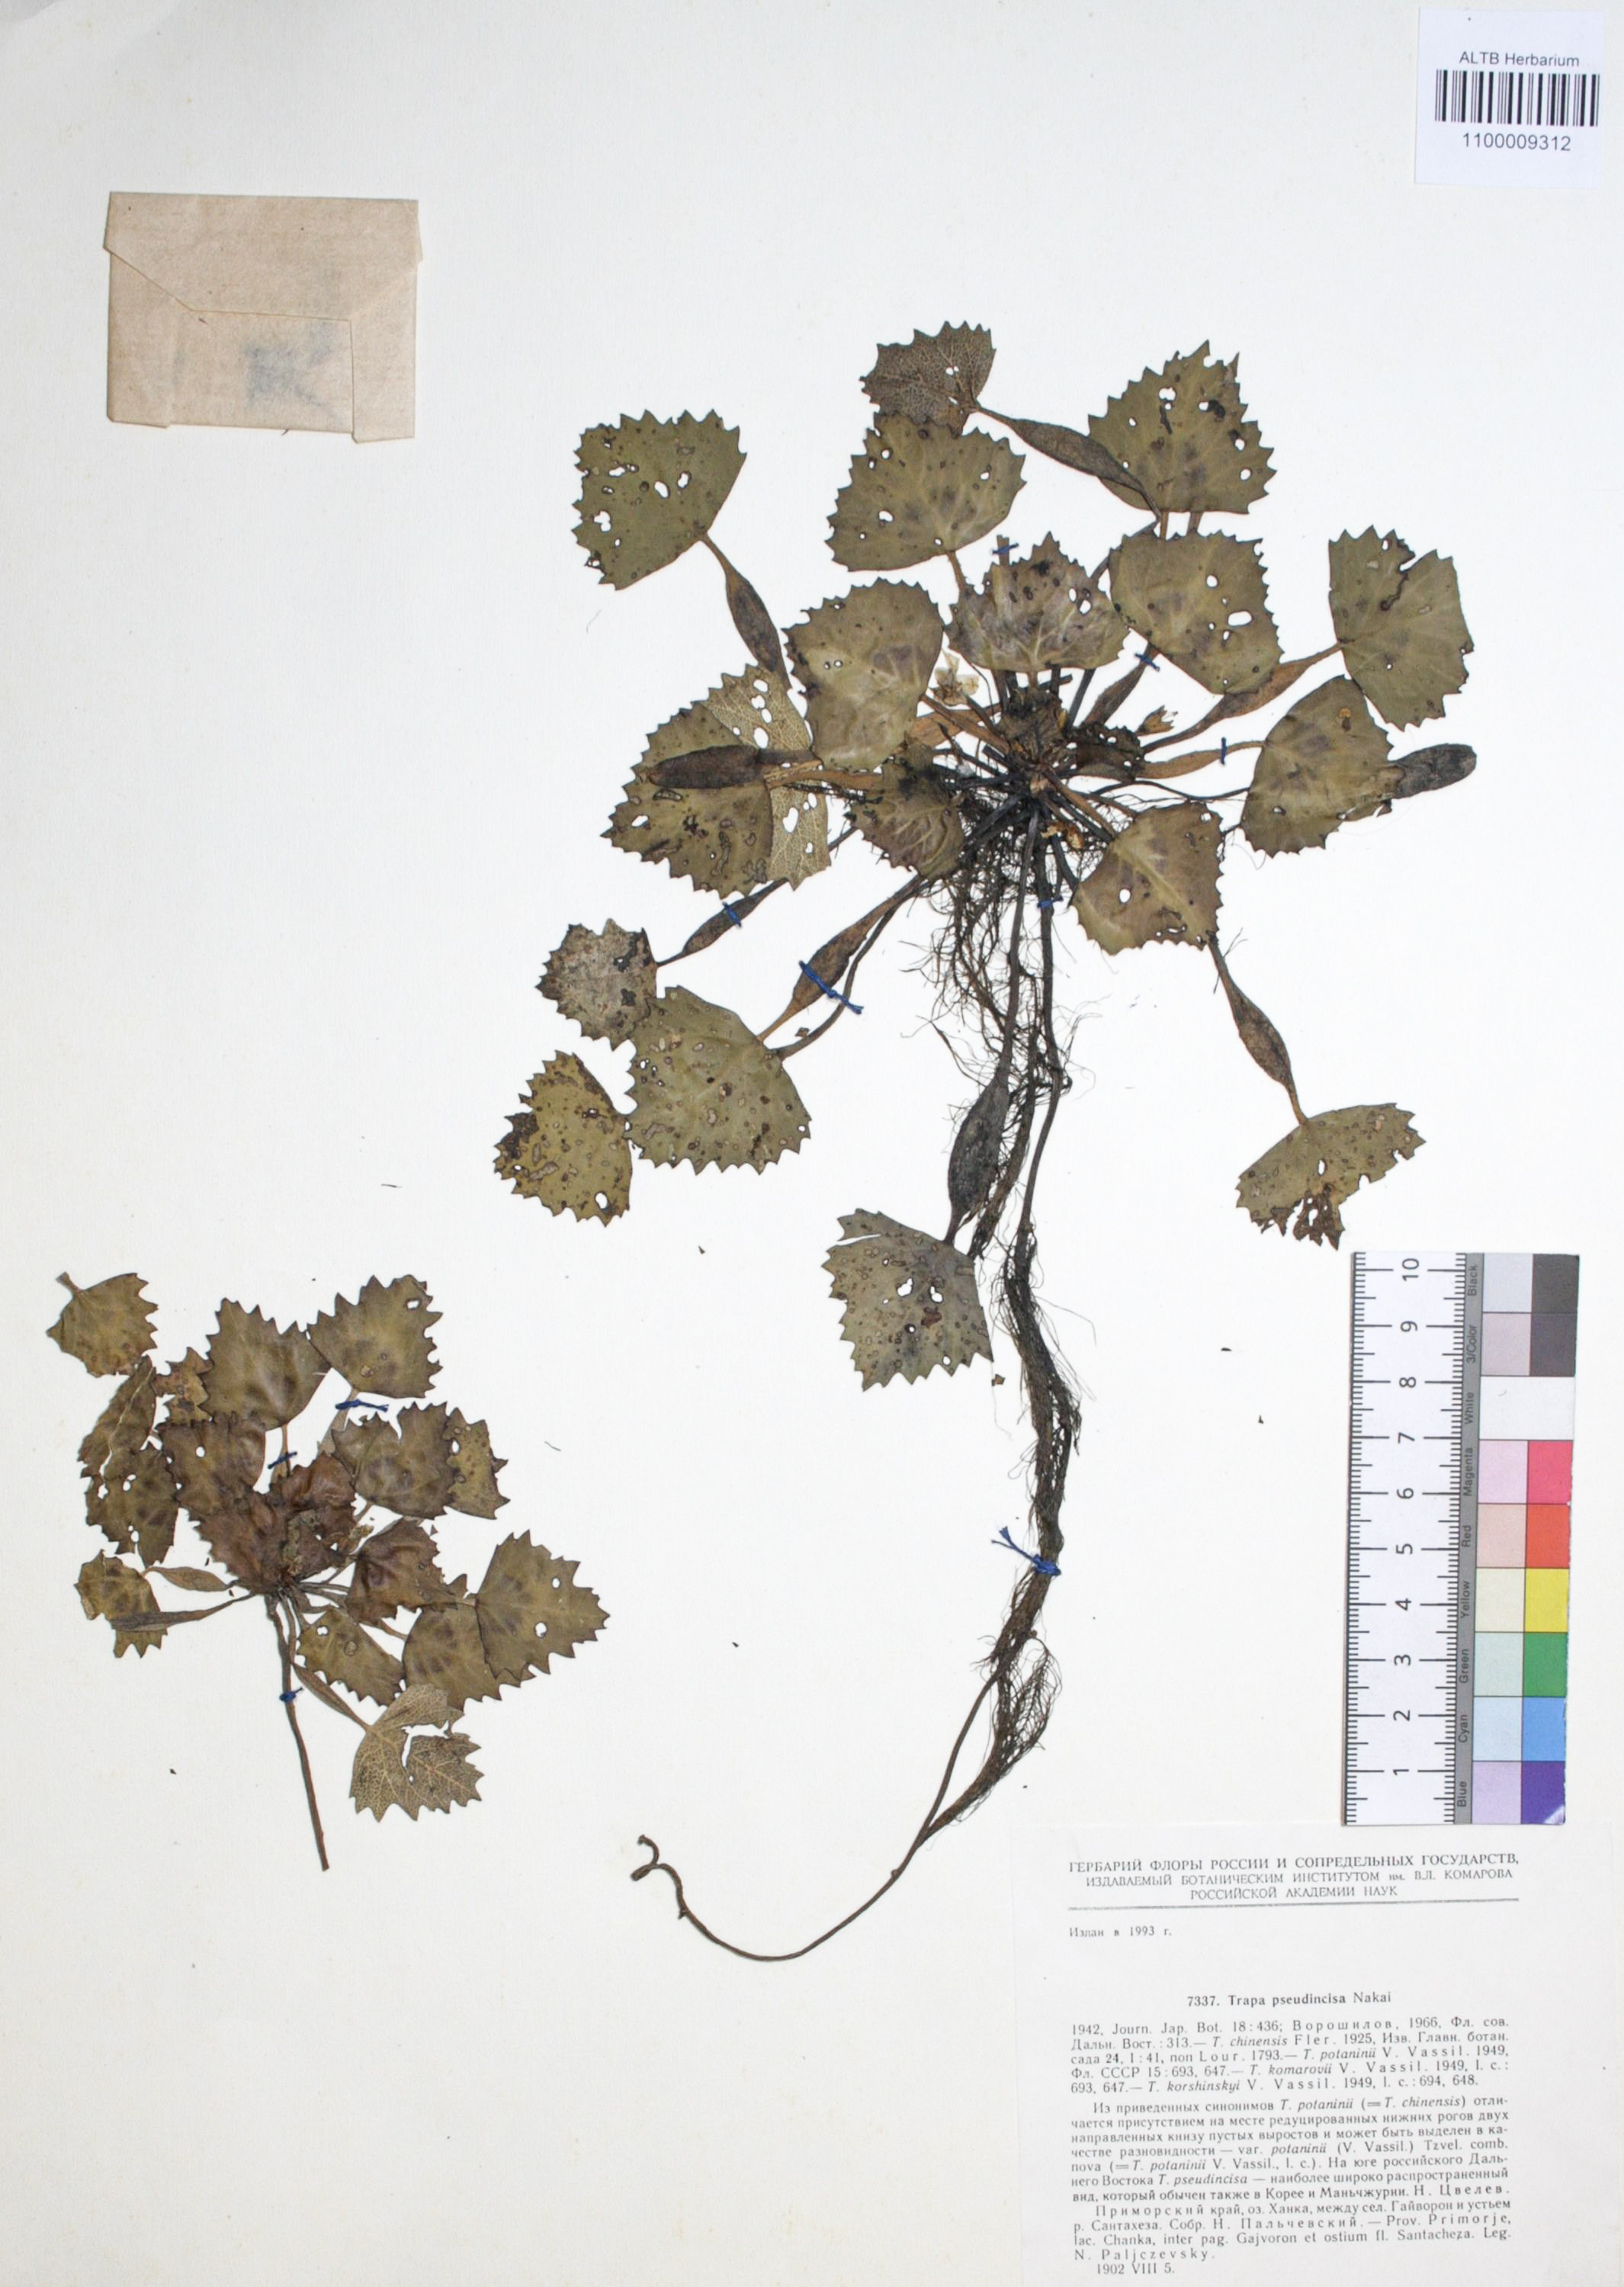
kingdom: Plantae
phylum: Tracheophyta
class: Magnoliopsida
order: Myrtales
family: Lythraceae
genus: Trapa
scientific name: Trapa natans
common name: Water chestnut
